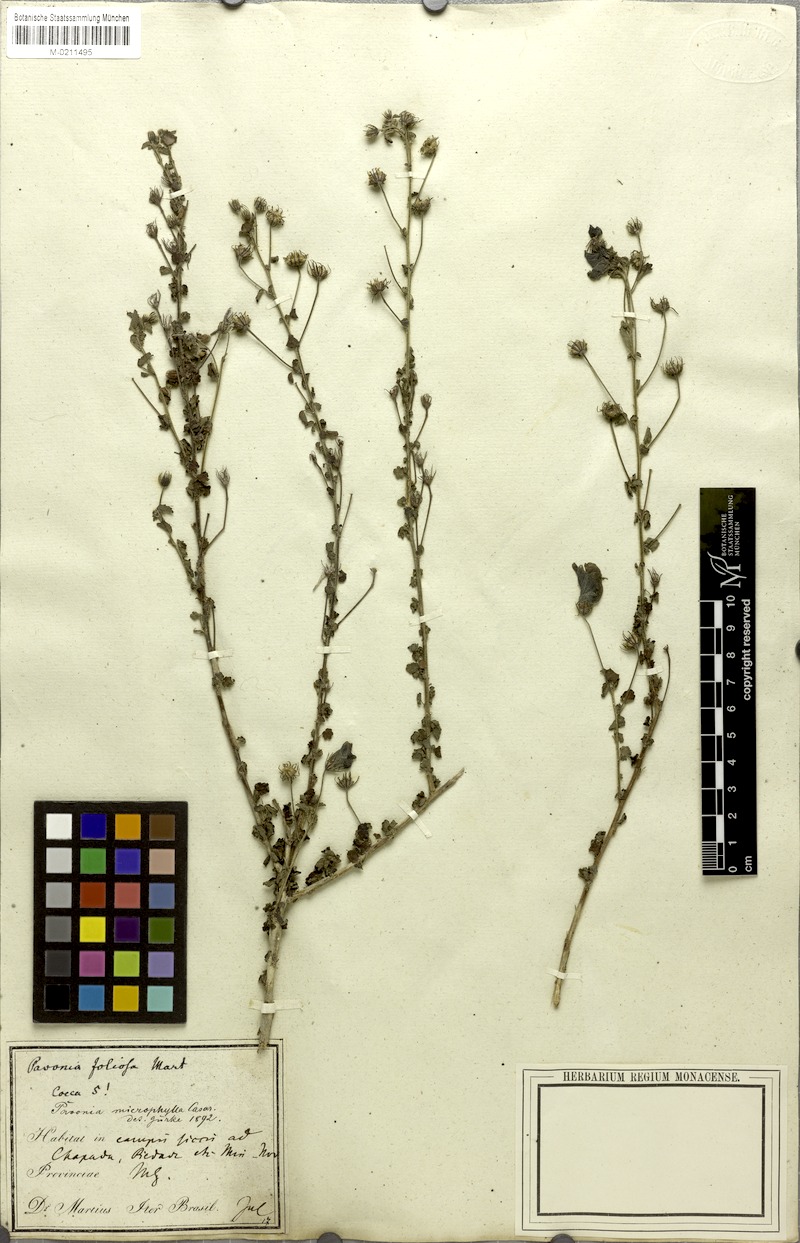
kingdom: Plantae
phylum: Tracheophyta
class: Magnoliopsida
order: Malvales
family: Malvaceae
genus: Pavonia
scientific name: Pavonia martii
